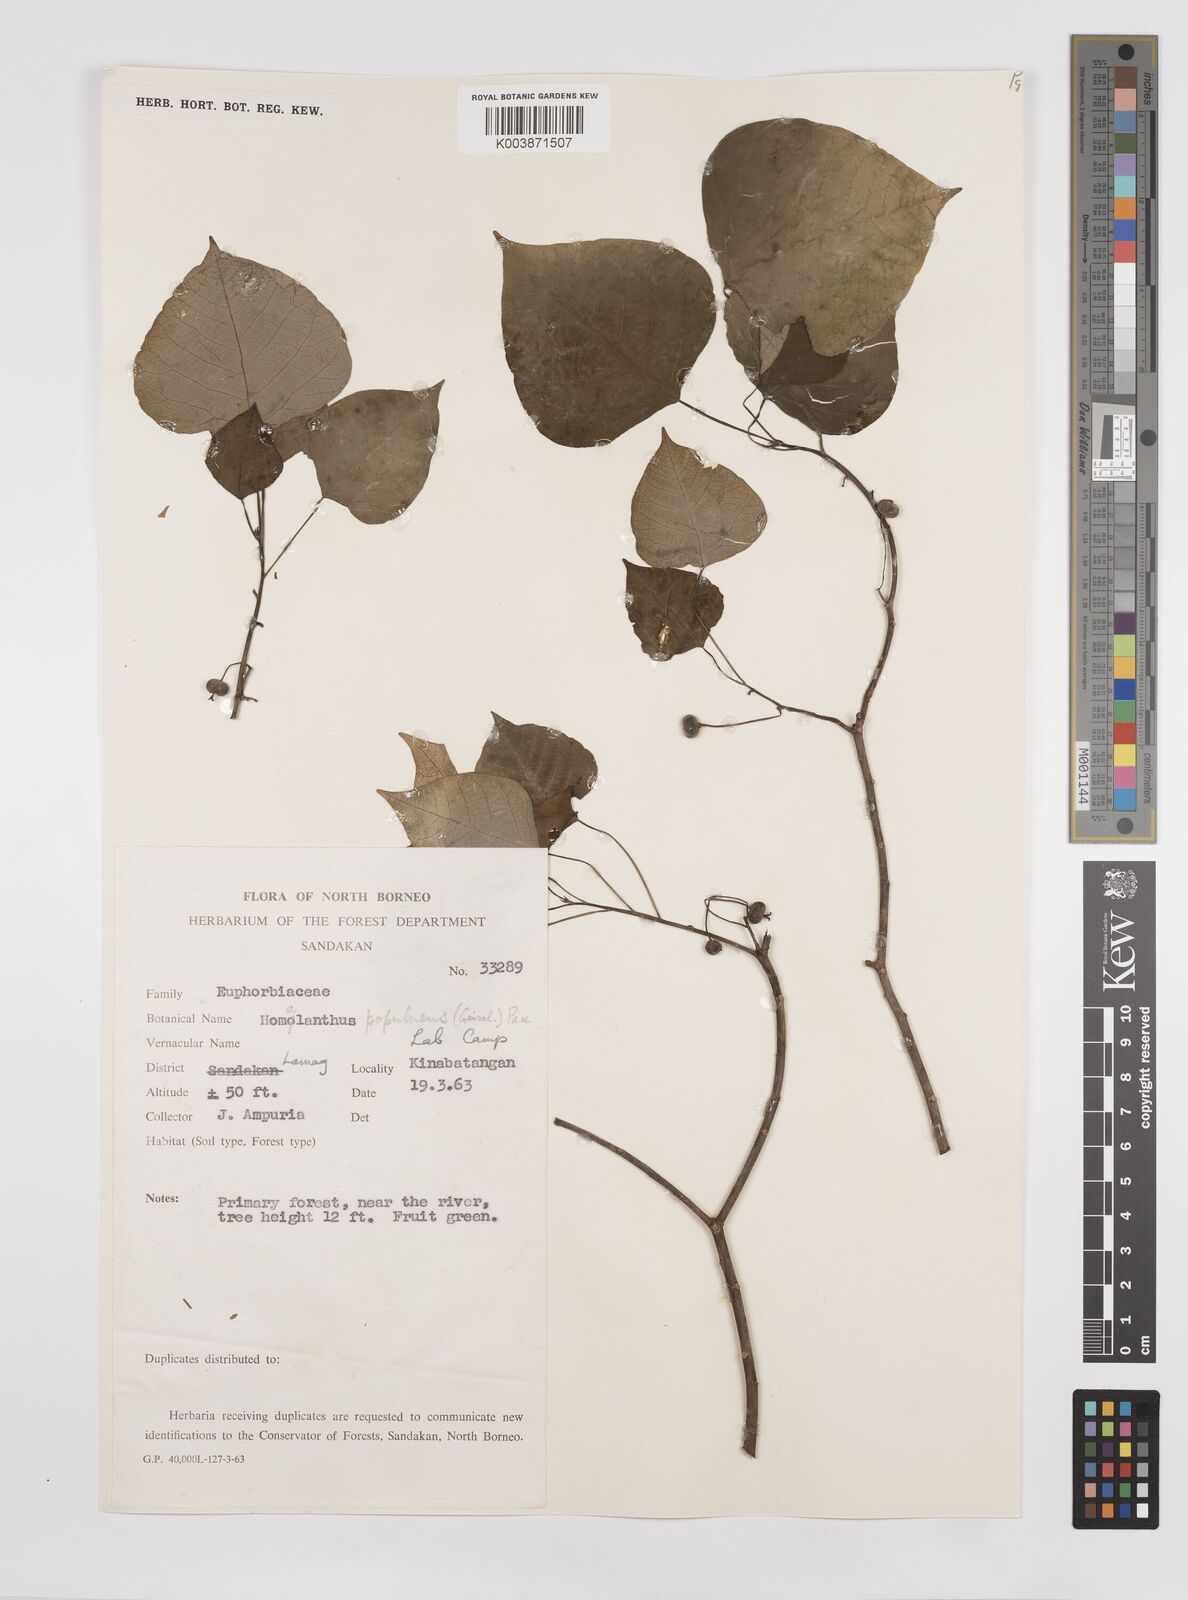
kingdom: Plantae
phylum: Tracheophyta
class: Magnoliopsida
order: Malpighiales
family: Euphorbiaceae
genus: Homalanthus
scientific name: Homalanthus populneus
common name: Spurge
